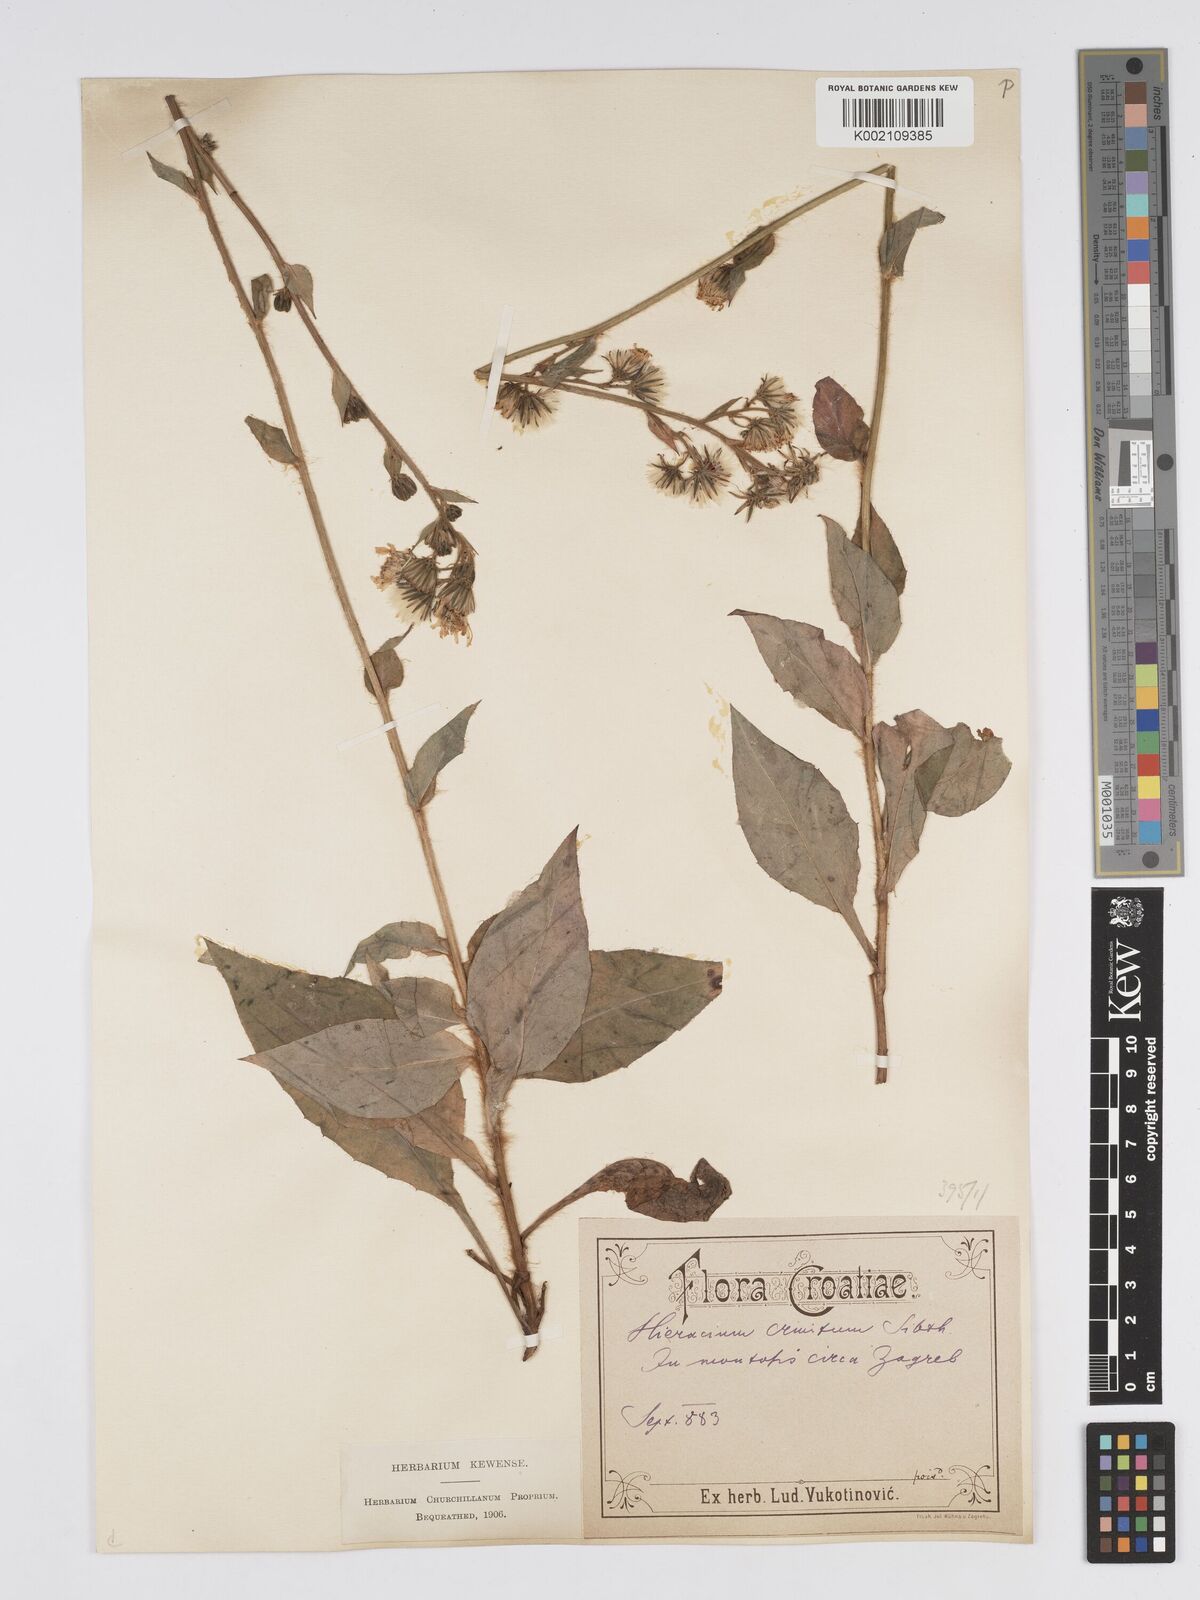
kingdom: Plantae
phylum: Tracheophyta
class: Magnoliopsida
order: Asterales
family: Asteraceae
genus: Hieracium
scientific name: Hieracium racemosum
